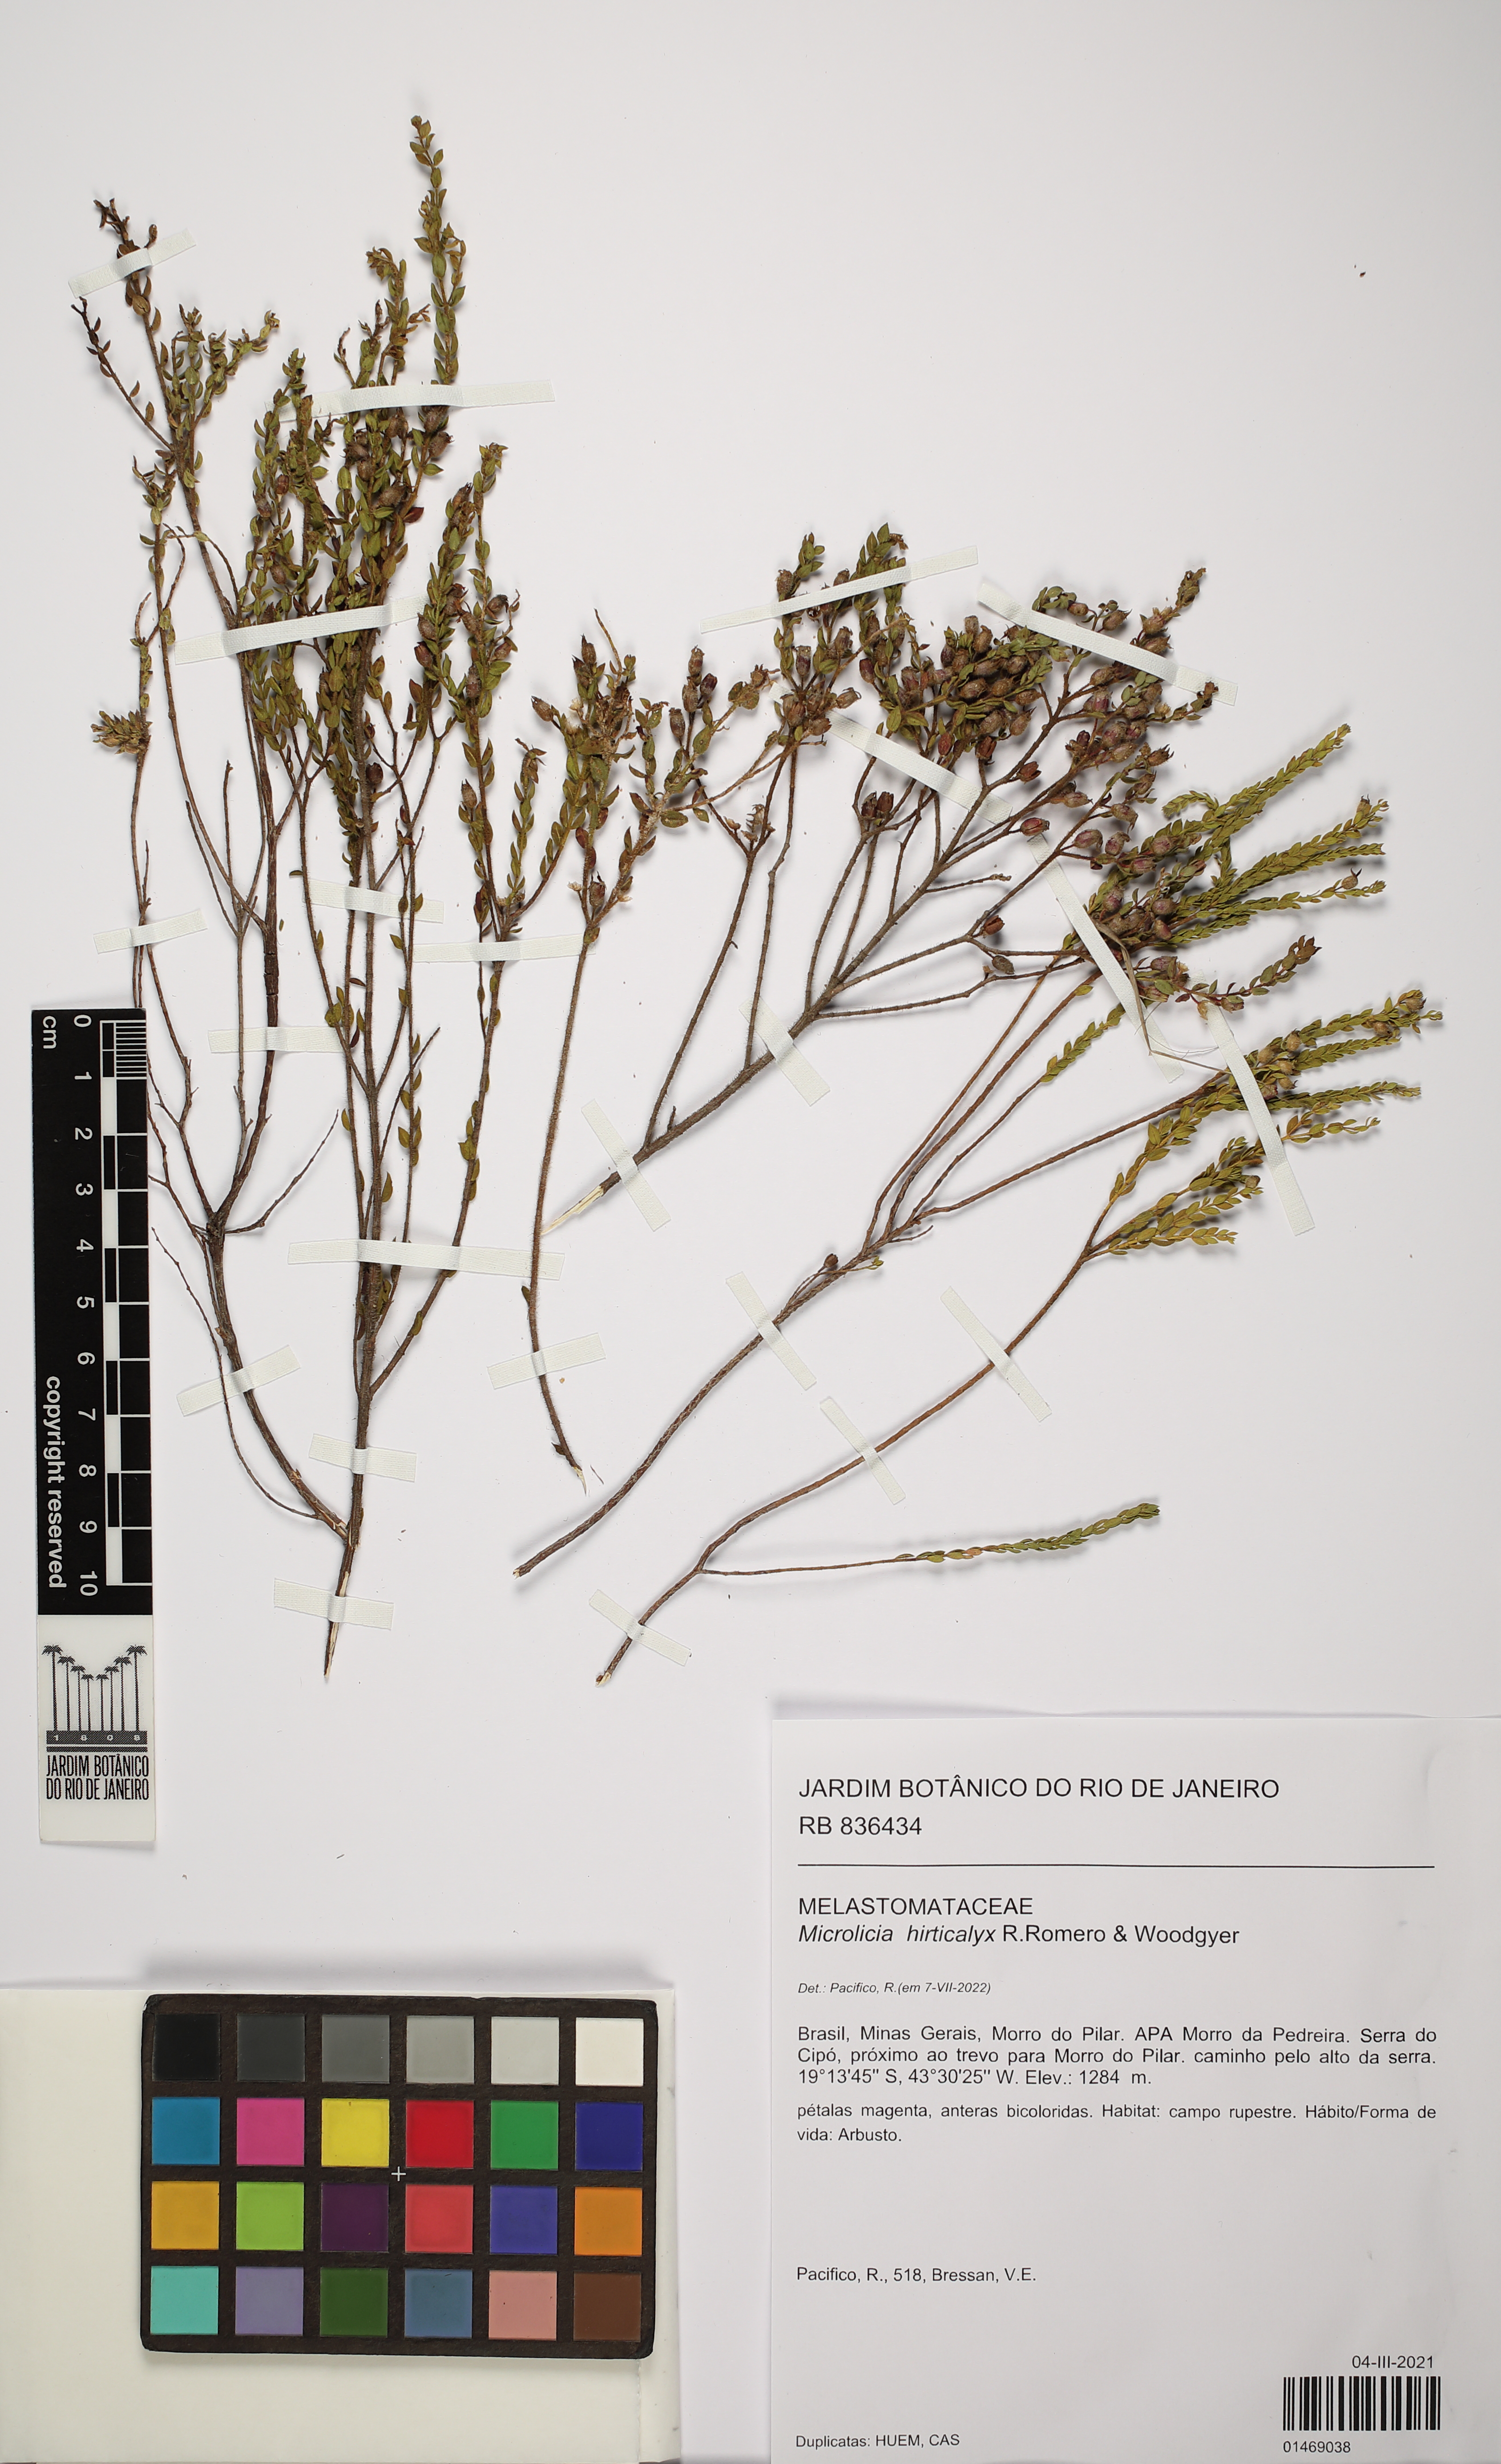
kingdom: Plantae
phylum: Tracheophyta
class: Magnoliopsida
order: Myrtales
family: Melastomataceae
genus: Microlicia
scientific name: Microlicia hirticalyx
